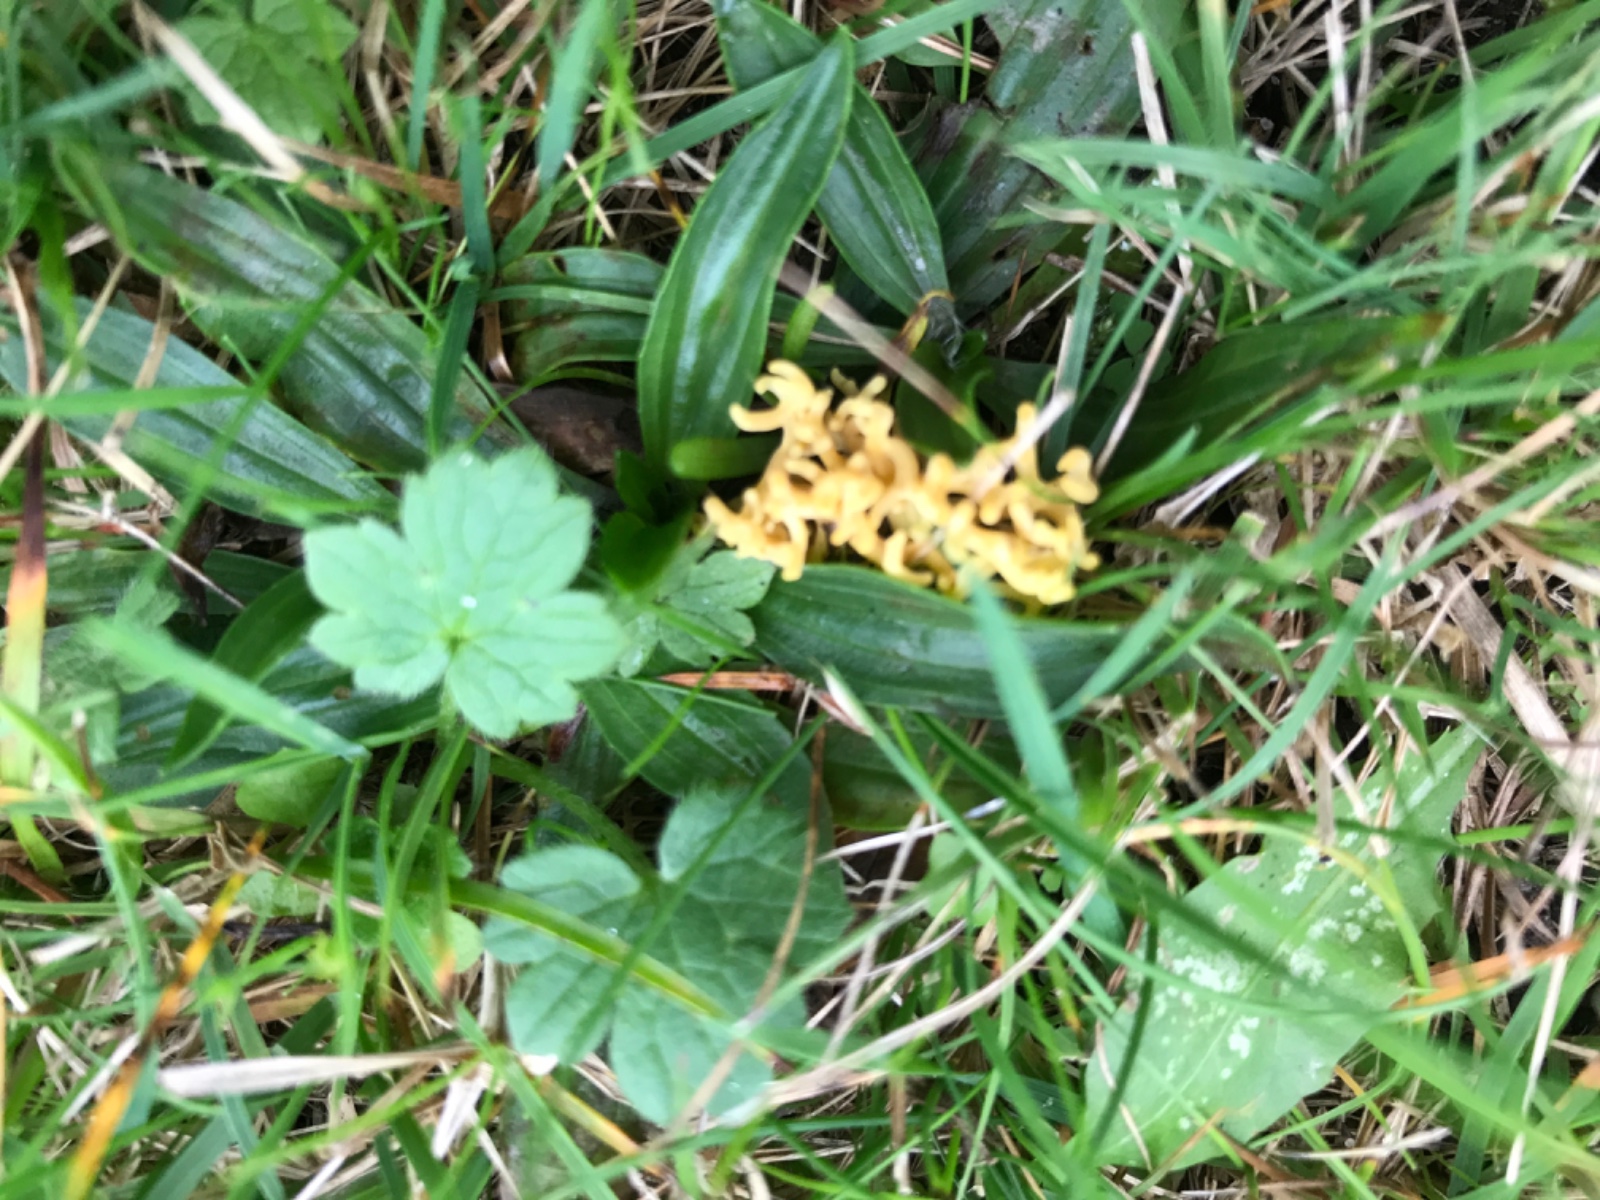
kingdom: Fungi
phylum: Basidiomycota
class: Agaricomycetes
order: Agaricales
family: Clavariaceae
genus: Clavulinopsis
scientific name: Clavulinopsis corniculata
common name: eng-køllesvamp
